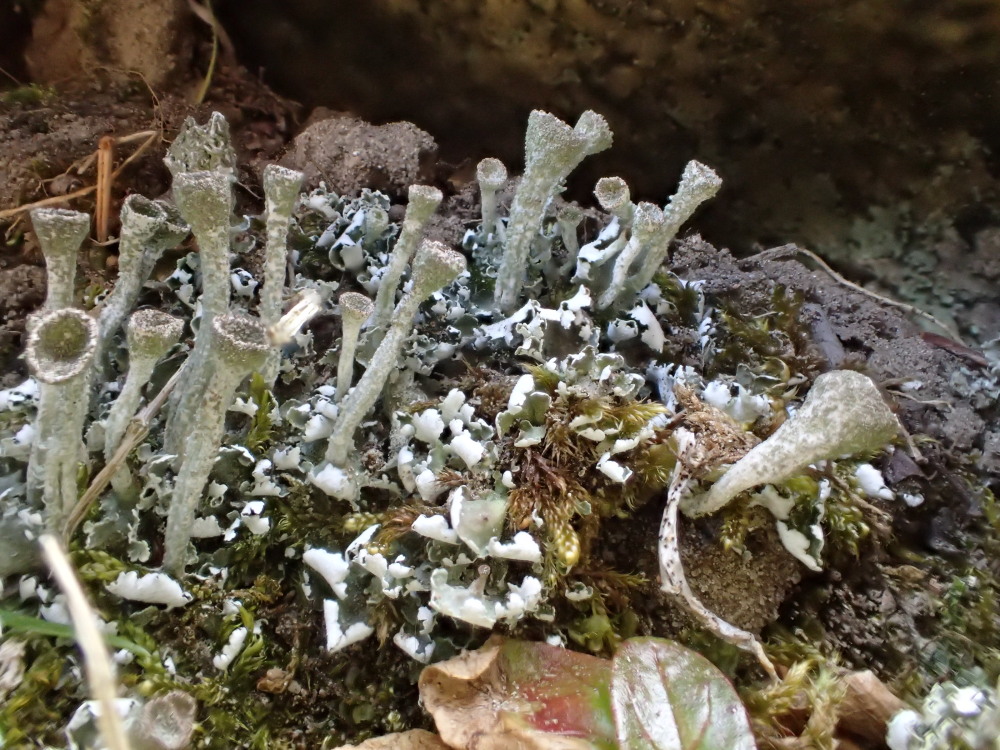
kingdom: Fungi
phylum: Ascomycota
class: Lecanoromycetes
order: Lecanorales
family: Cladoniaceae
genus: Cladonia
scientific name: Cladonia fimbriata
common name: bleggrøn bægerlav
